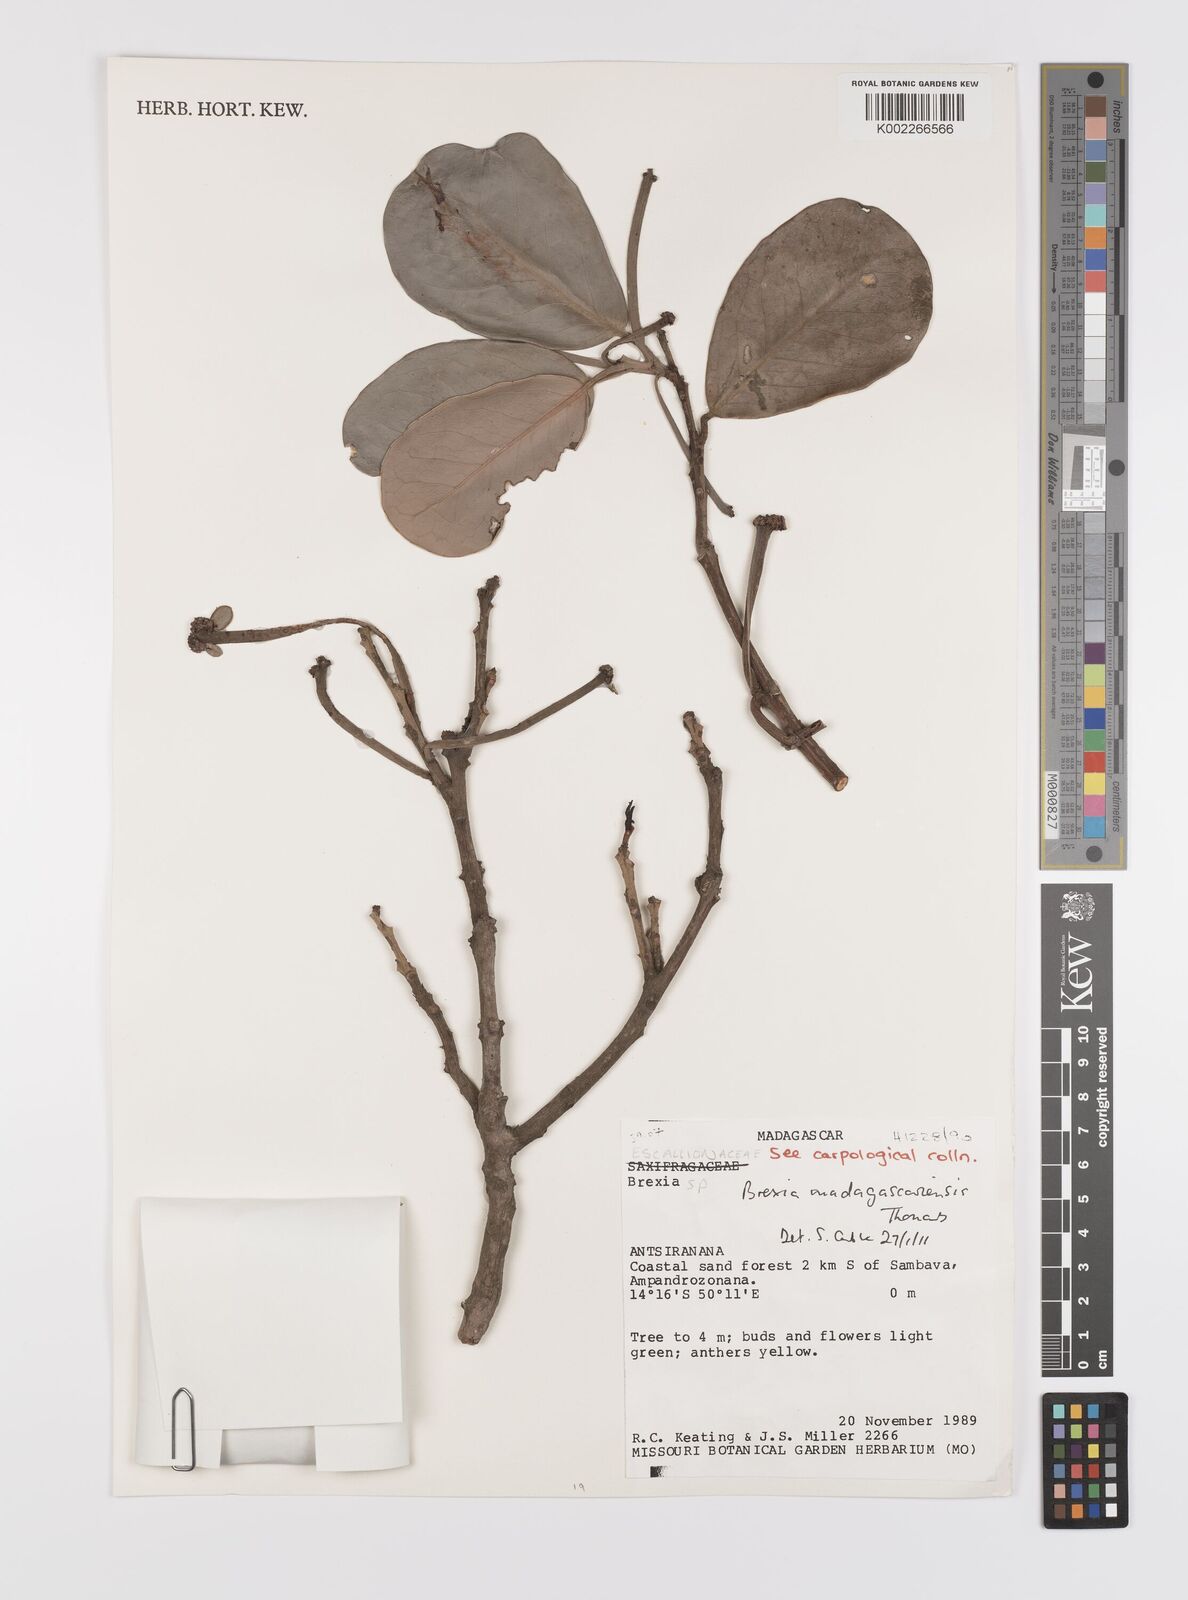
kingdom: Plantae
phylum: Tracheophyta
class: Magnoliopsida
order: Celastrales
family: Celastraceae
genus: Brexia
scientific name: Brexia madagascariensis
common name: Brexia
